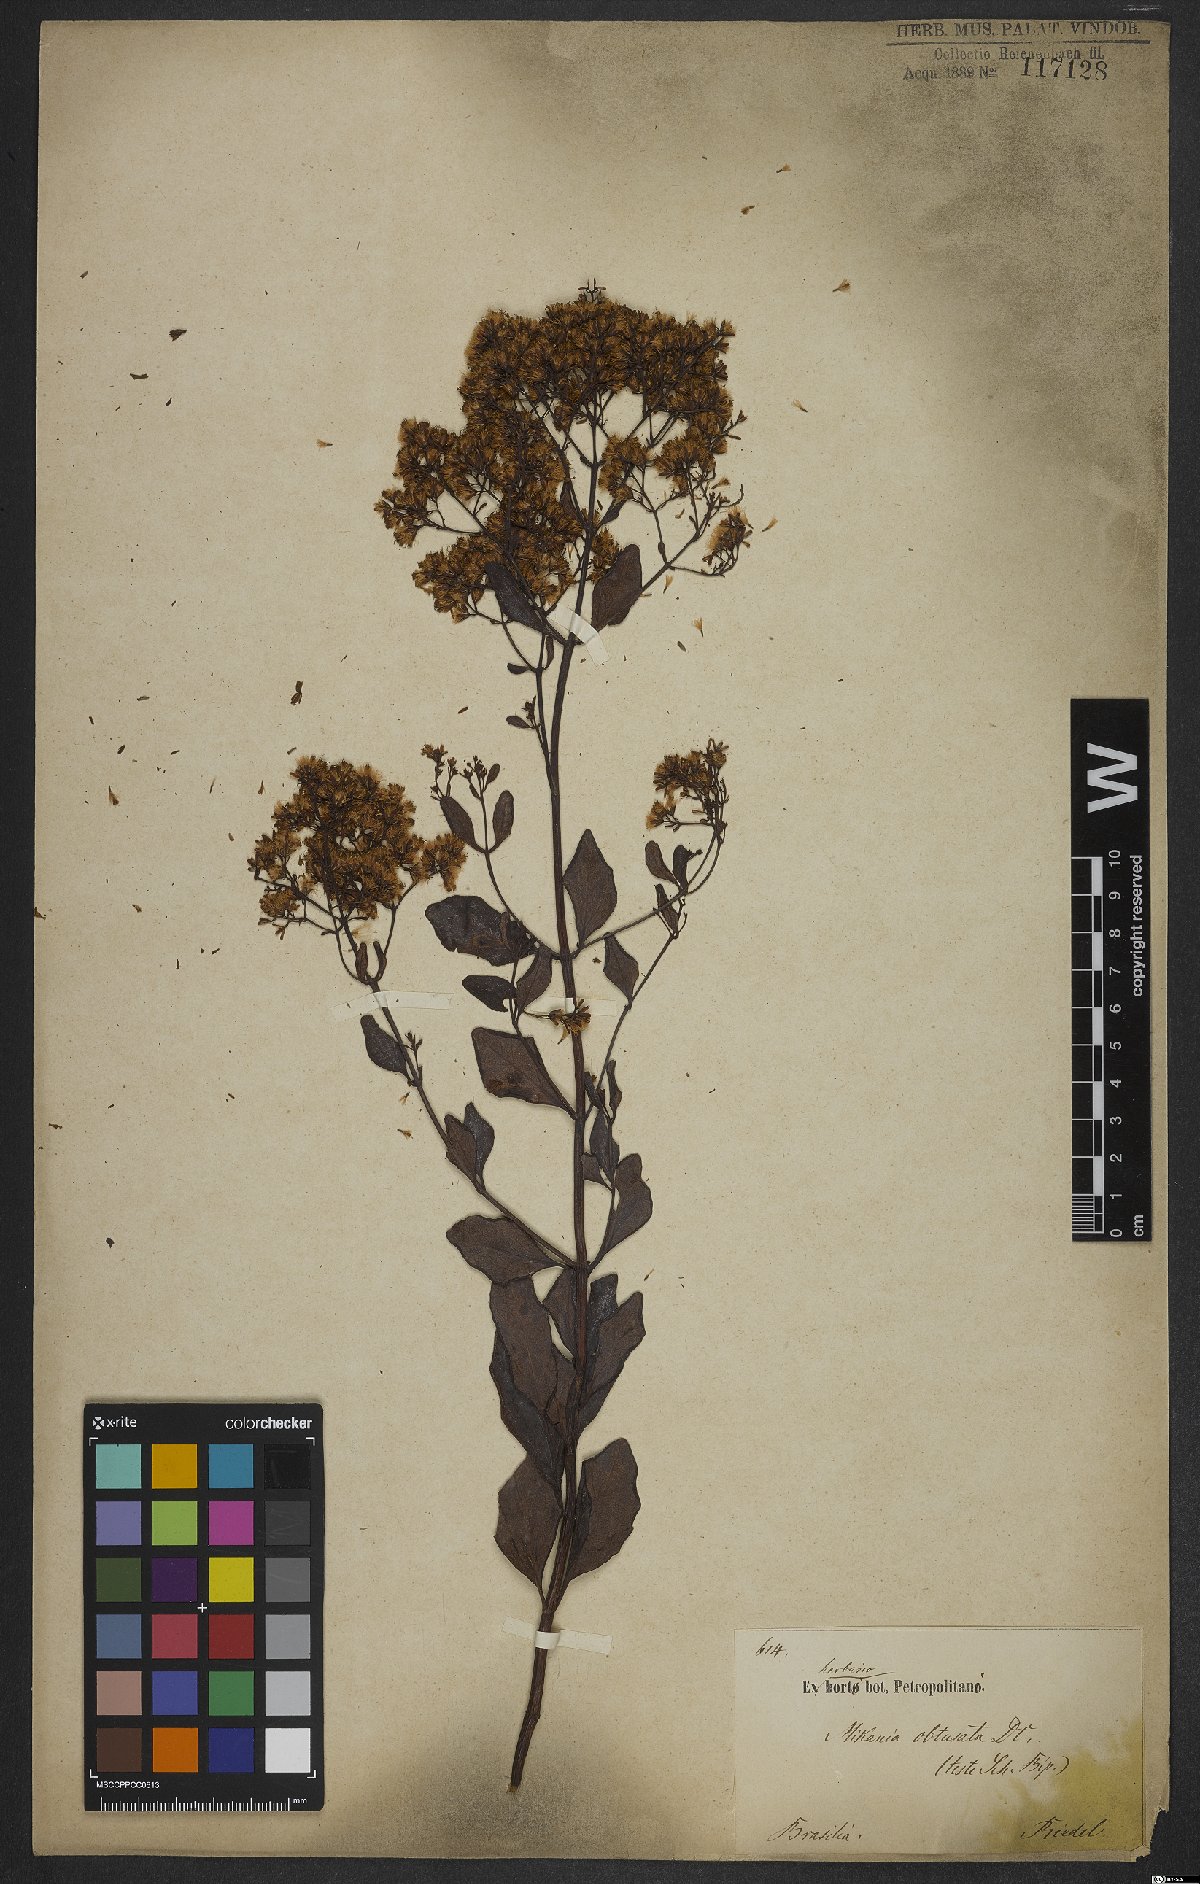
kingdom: Plantae
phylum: Tracheophyta
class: Magnoliopsida
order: Asterales
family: Asteraceae
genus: Mikania
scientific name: Mikania obtusata
